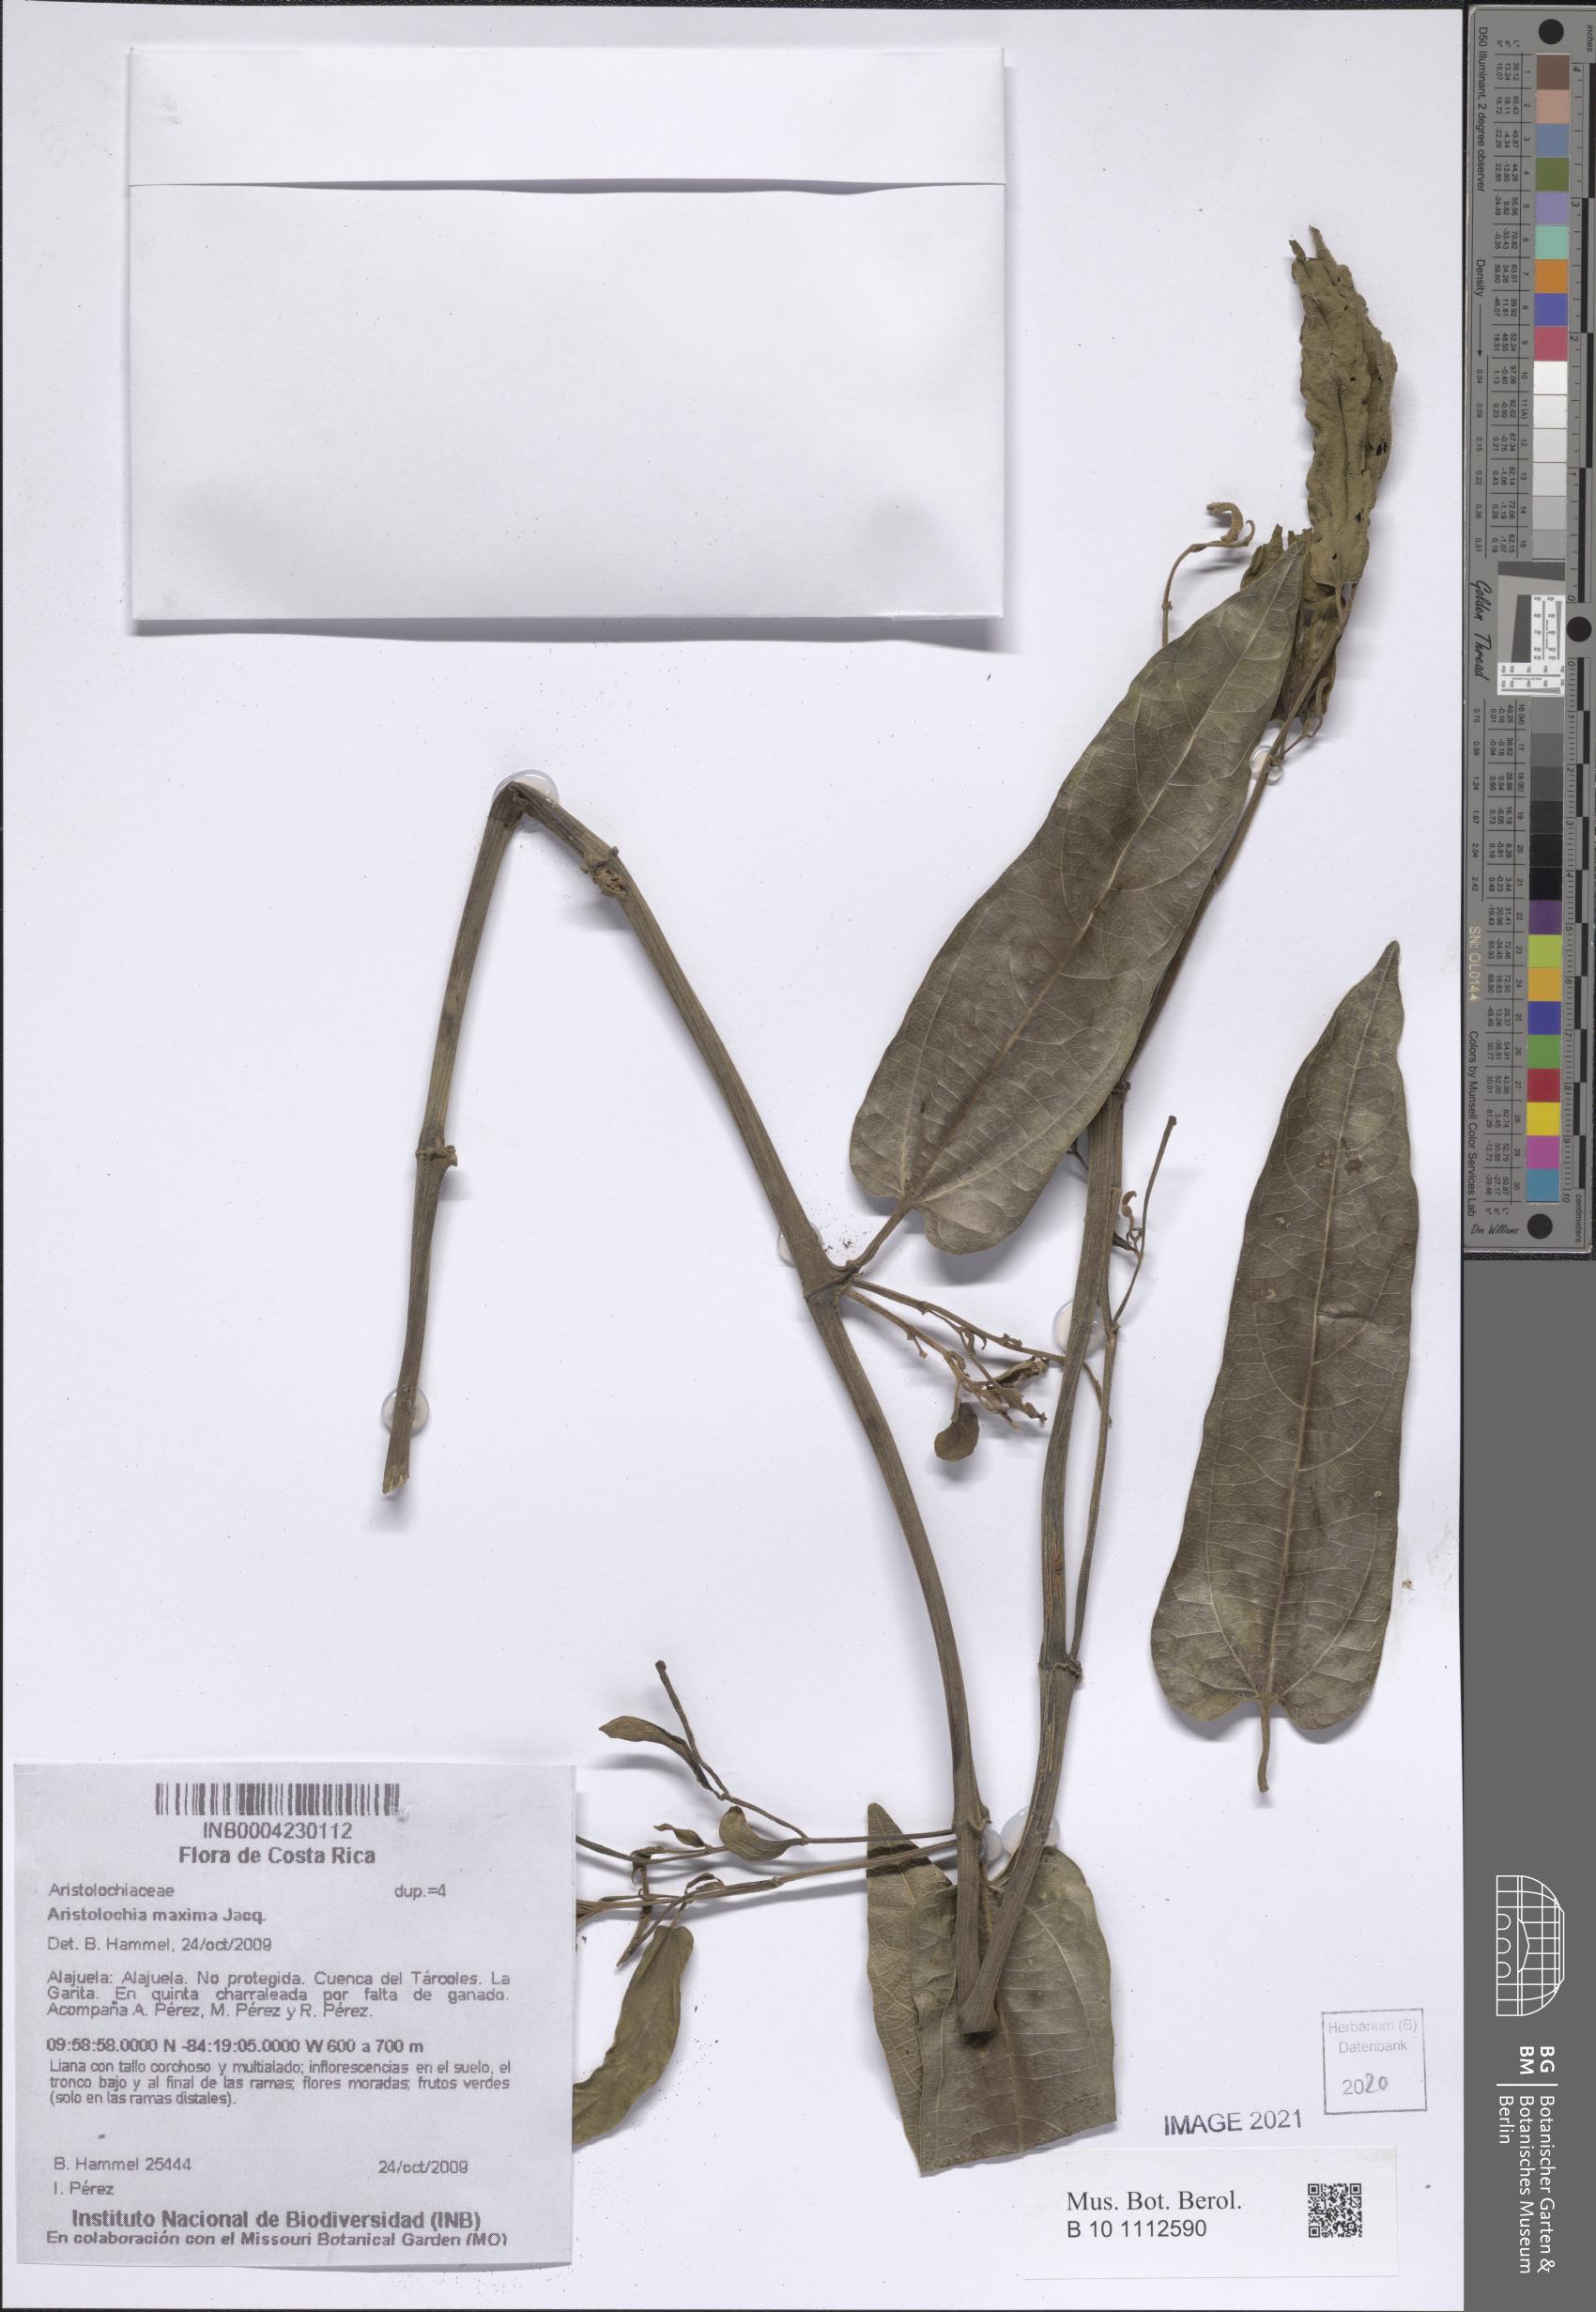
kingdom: Plantae
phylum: Tracheophyta
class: Magnoliopsida
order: Piperales
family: Aristolochiaceae
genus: Aristolochia
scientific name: Aristolochia maxima
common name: Florida dutchman's pipe
